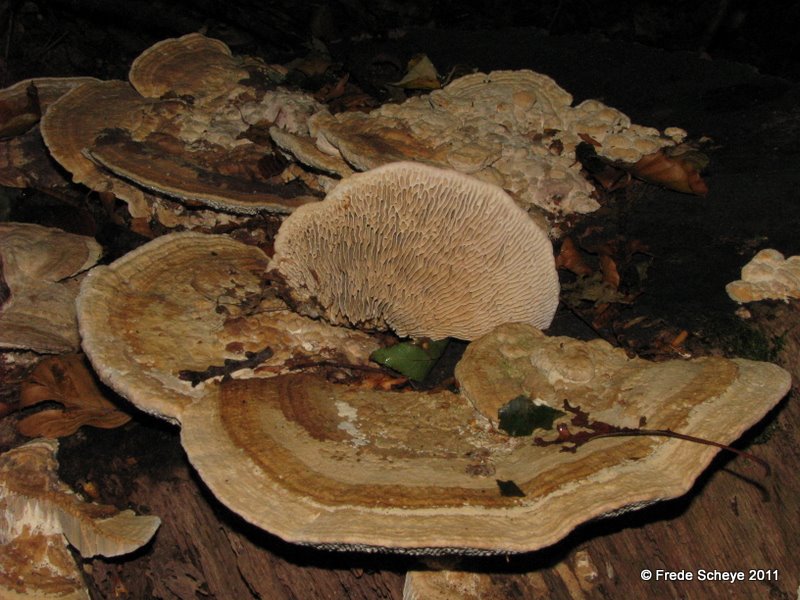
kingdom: Fungi
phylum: Basidiomycota
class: Agaricomycetes
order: Polyporales
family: Fomitopsidaceae
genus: Daedalea
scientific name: Daedalea quercina
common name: ege-labyrintsvamp
